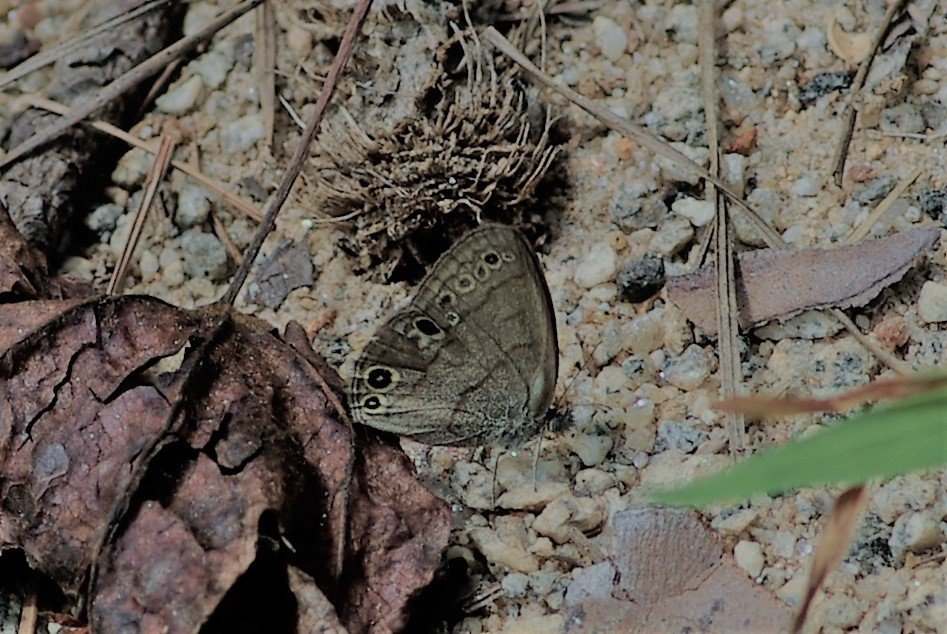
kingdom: Animalia
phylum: Arthropoda
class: Insecta
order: Lepidoptera
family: Nymphalidae
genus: Hermeuptychia
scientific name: Hermeuptychia hermes
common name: Carolina Satyr
